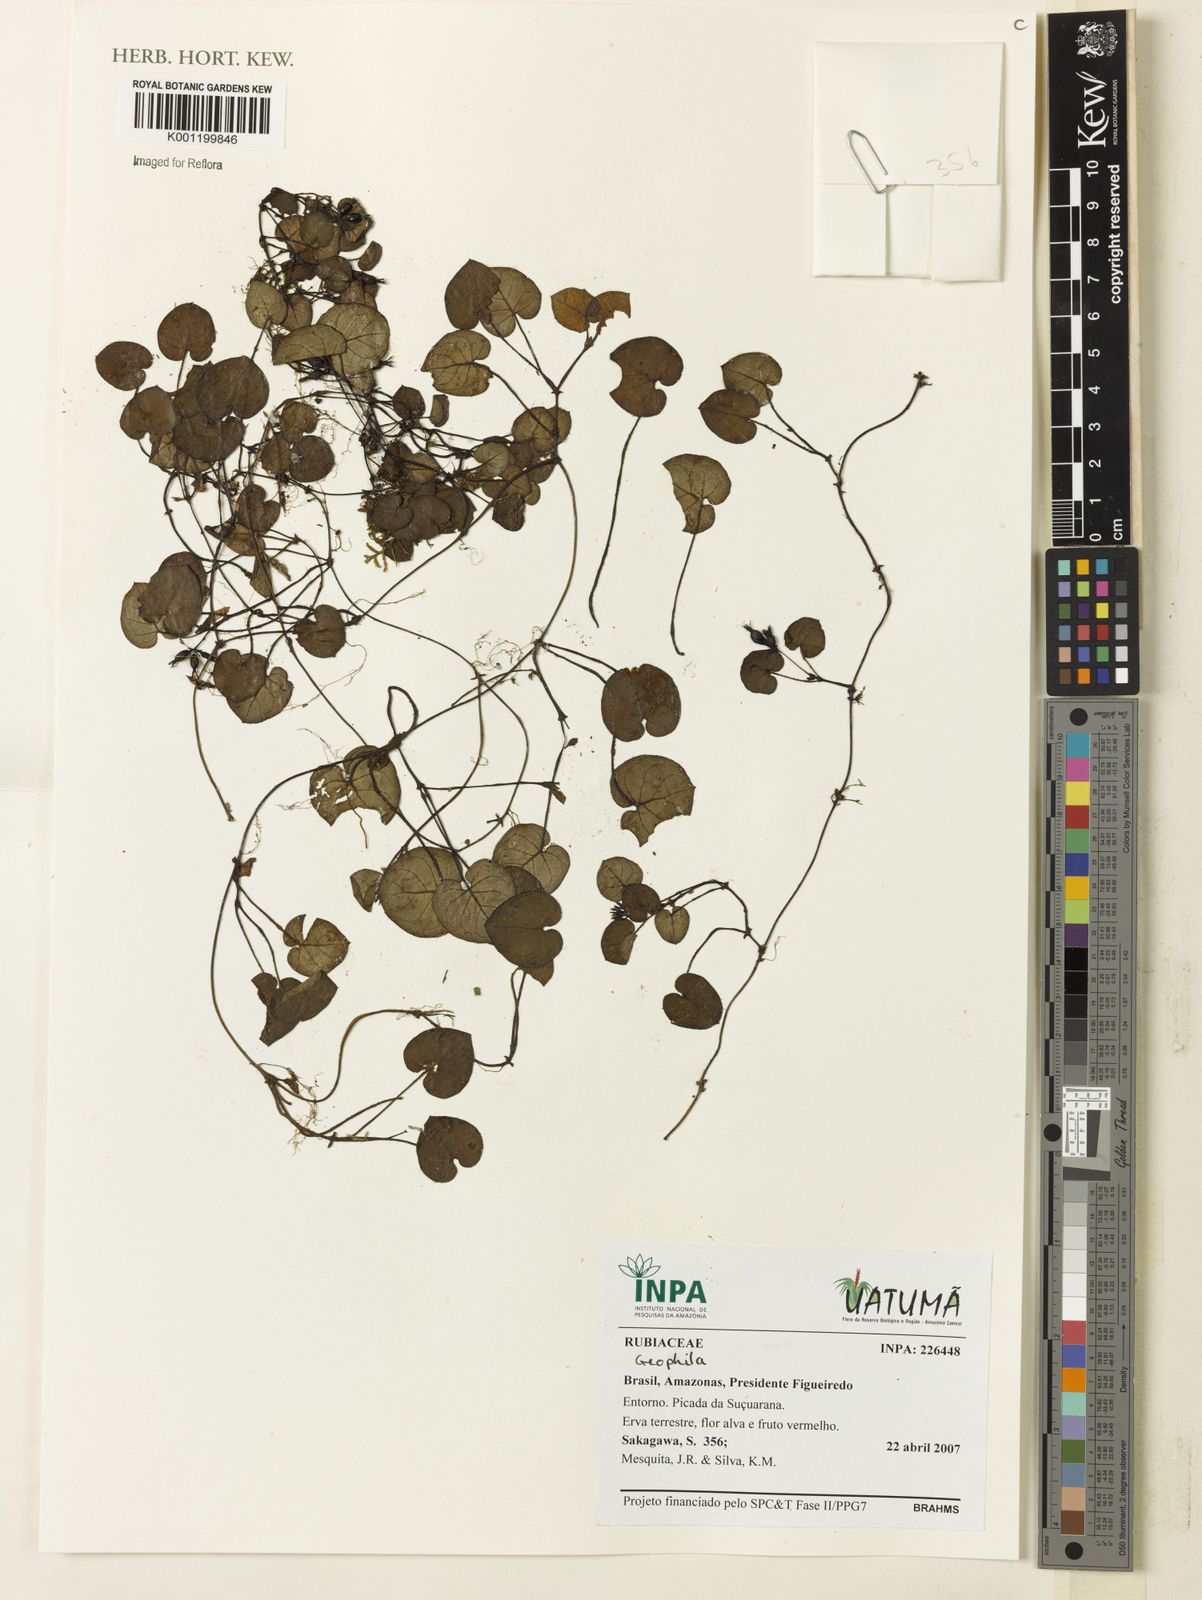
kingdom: Plantae
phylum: Tracheophyta
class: Magnoliopsida
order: Gentianales
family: Rubiaceae
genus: Geophila
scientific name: Geophila
